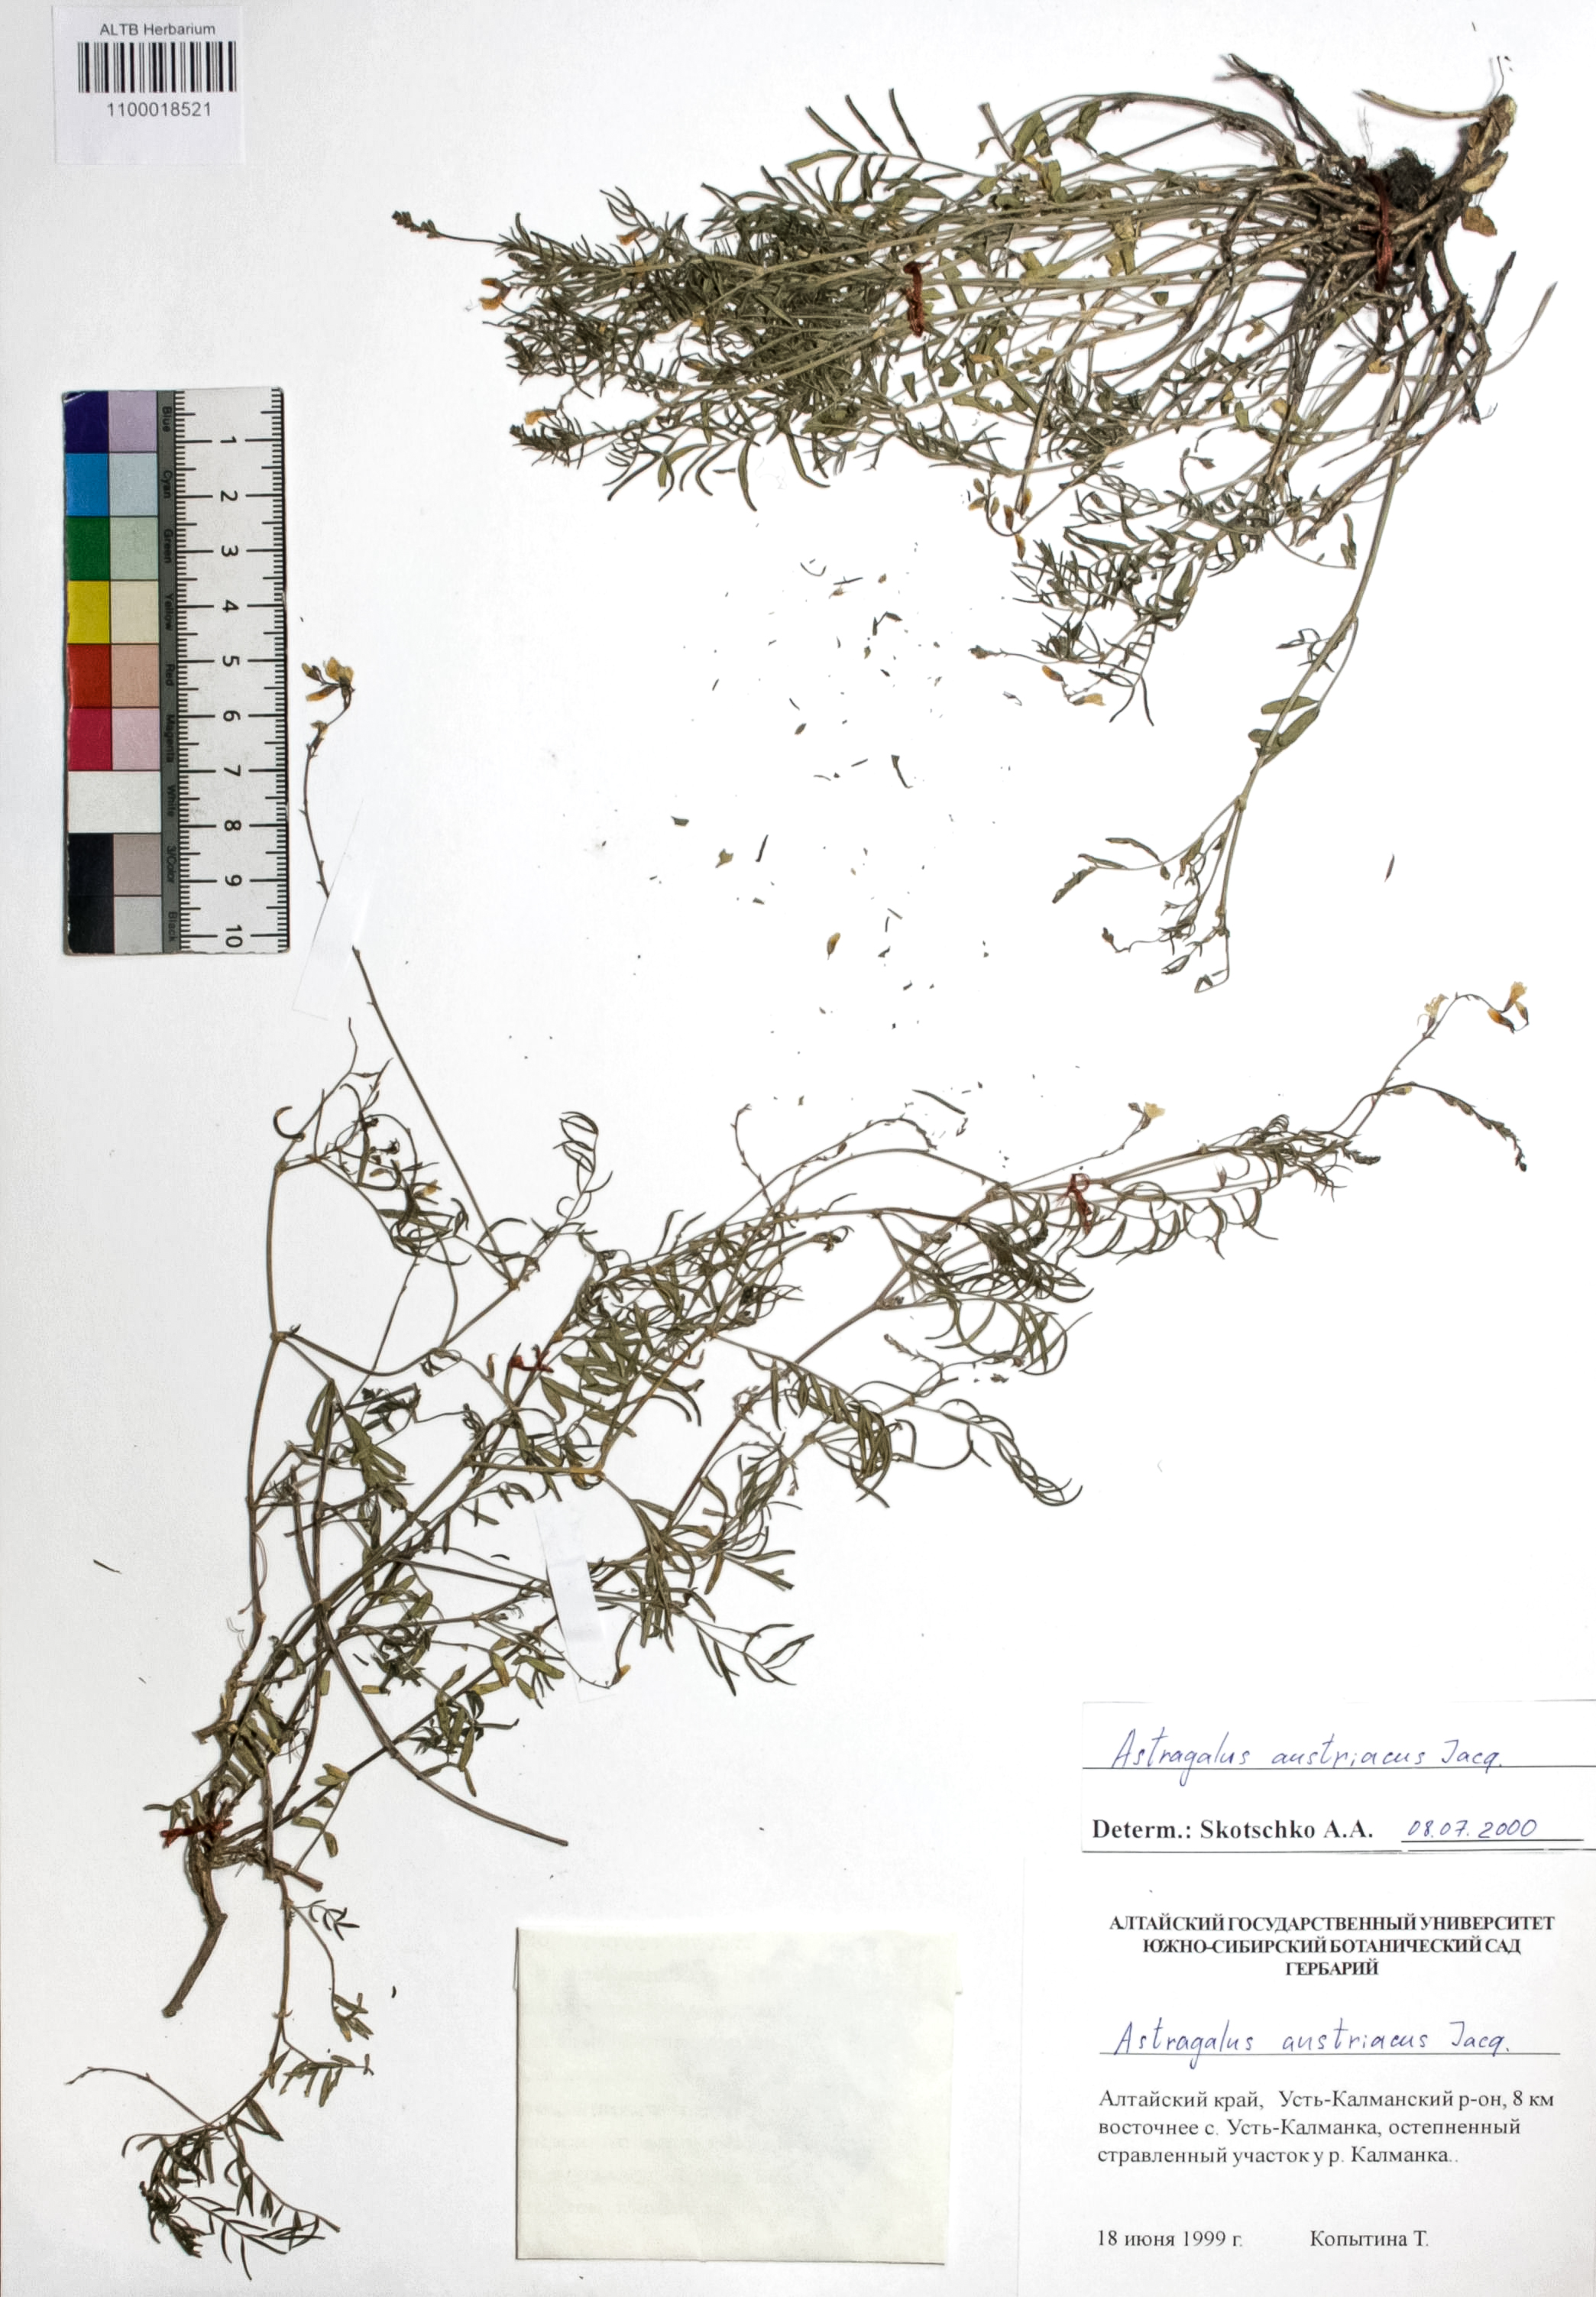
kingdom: Plantae
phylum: Tracheophyta
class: Magnoliopsida
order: Fabales
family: Fabaceae
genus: Astragalus
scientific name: Astragalus austriacus
